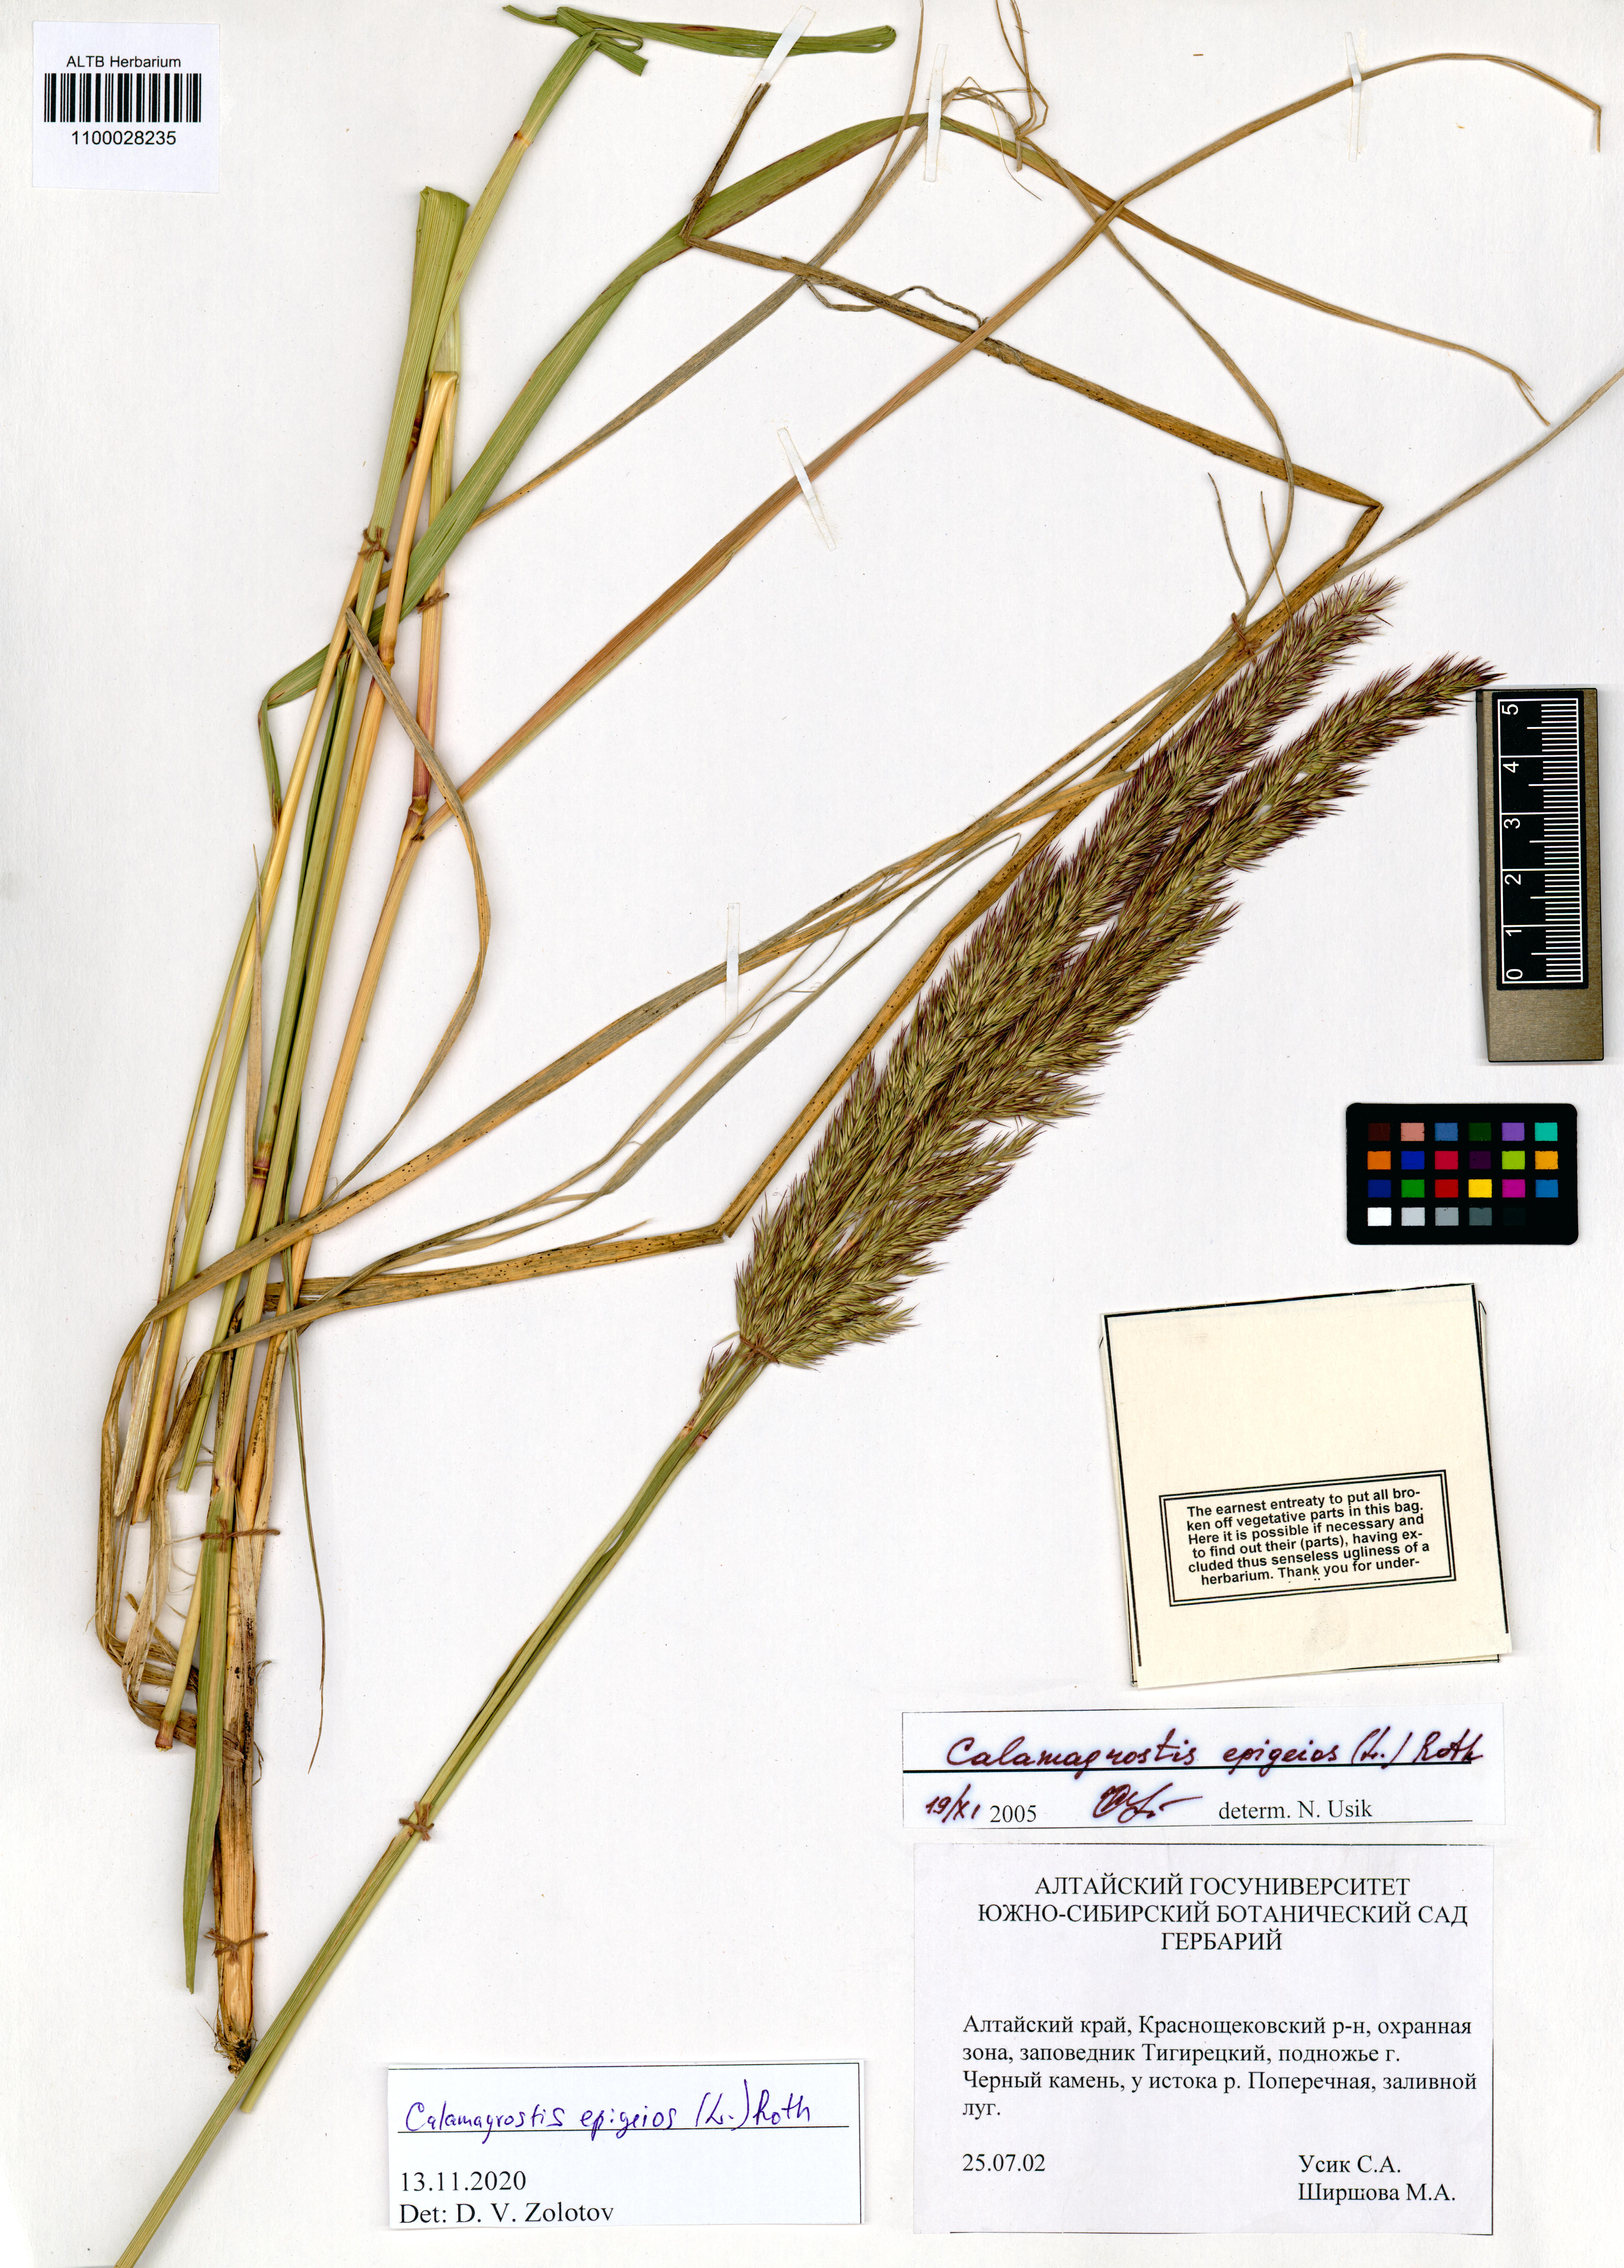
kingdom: Plantae
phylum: Tracheophyta
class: Liliopsida
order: Poales
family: Poaceae
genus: Calamagrostis
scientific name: Calamagrostis epigejos
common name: Wood small-reed
